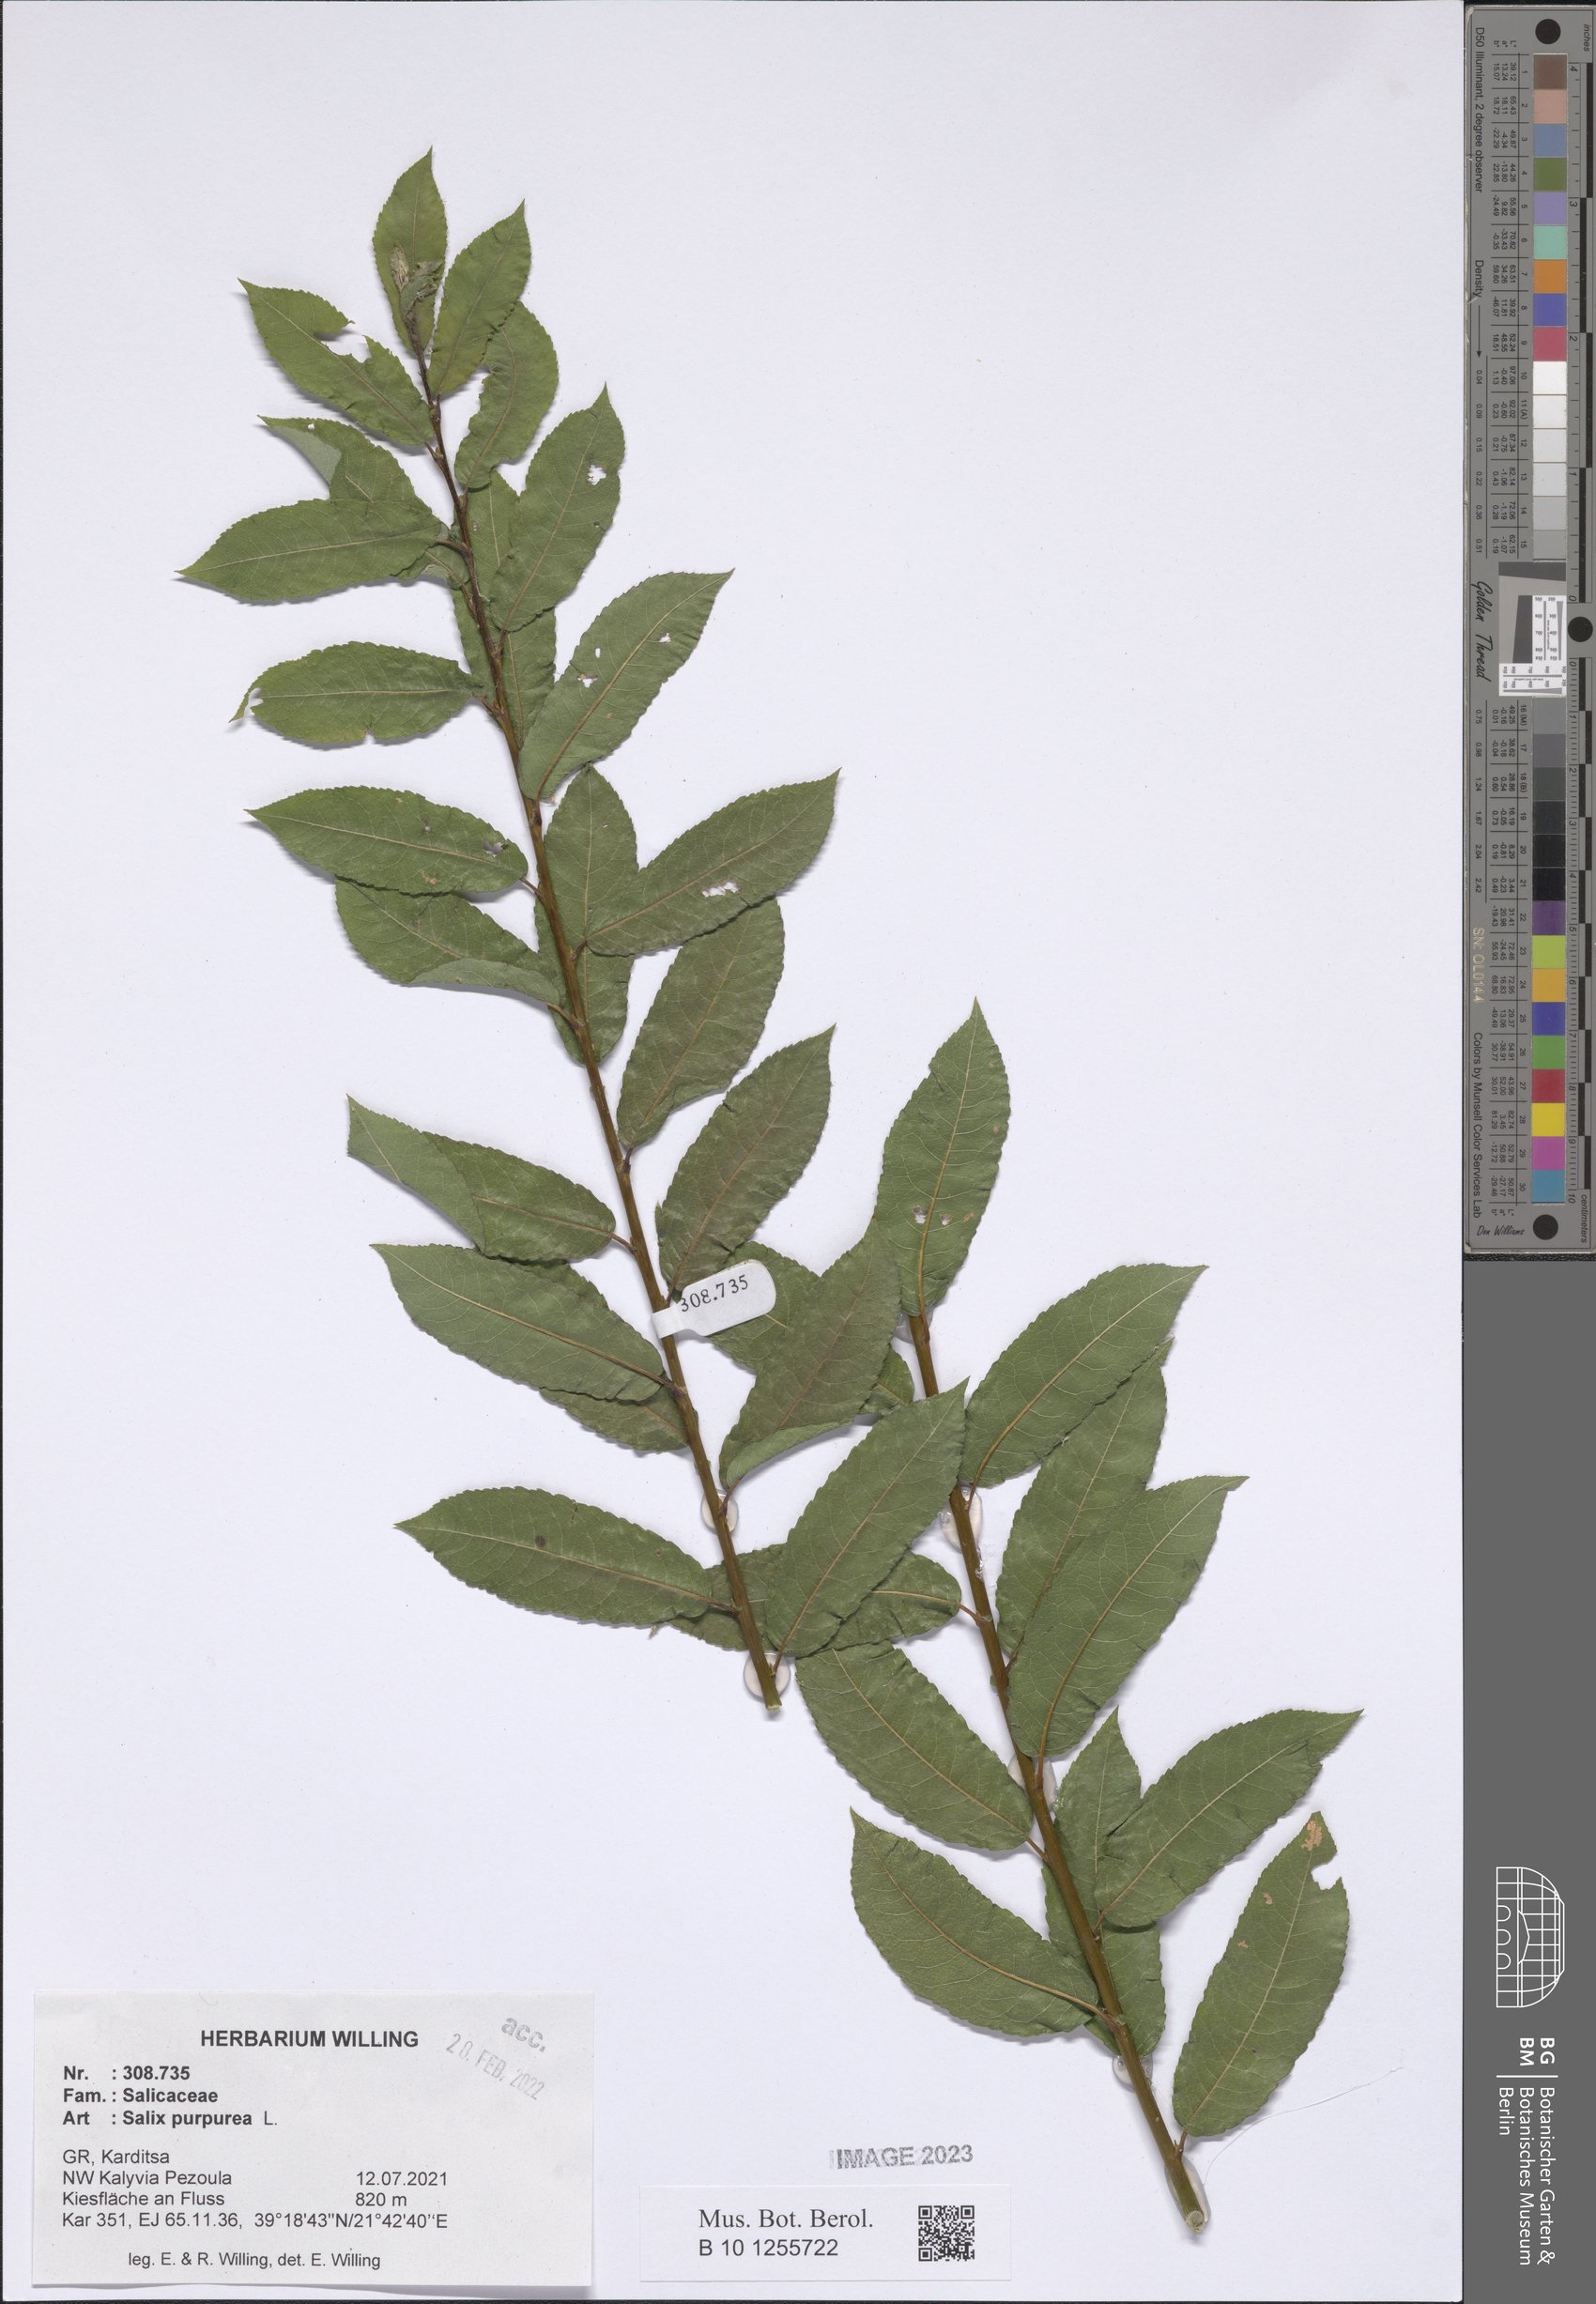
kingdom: Plantae
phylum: Tracheophyta
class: Magnoliopsida
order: Malpighiales
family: Salicaceae
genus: Salix
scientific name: Salix purpurea
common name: Purple willow
